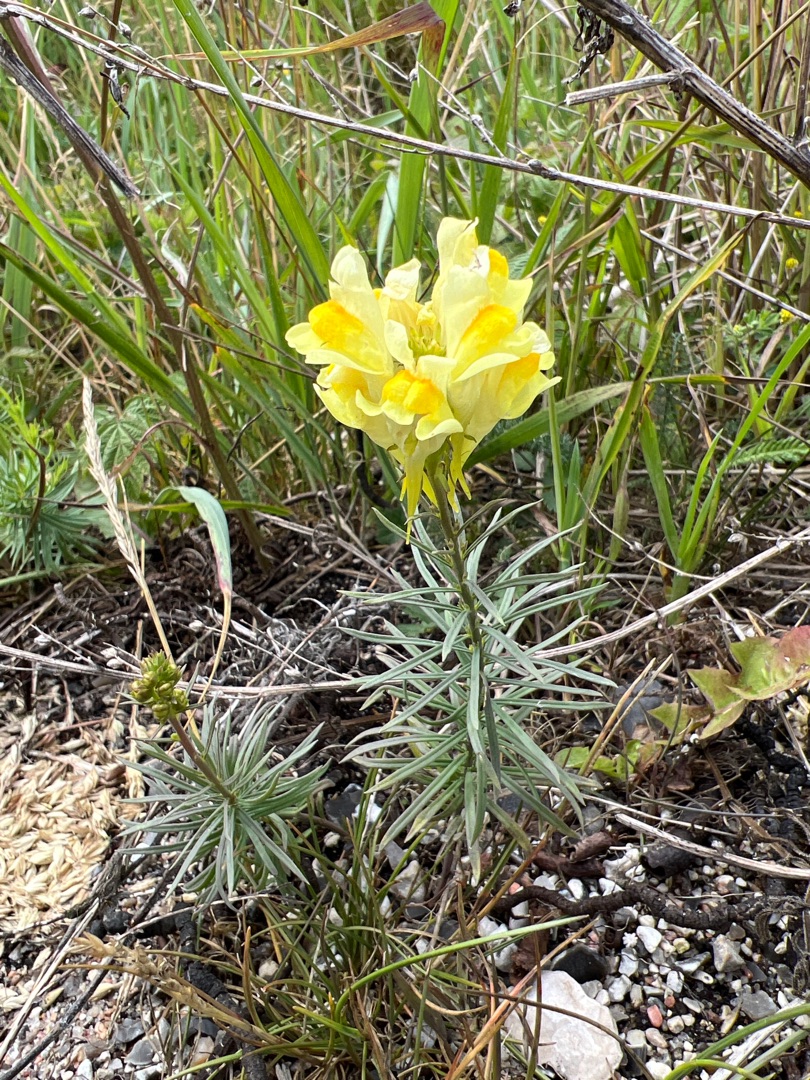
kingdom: Plantae
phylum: Tracheophyta
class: Magnoliopsida
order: Lamiales
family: Plantaginaceae
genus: Linaria
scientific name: Linaria vulgaris
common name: Almindelig torskemund
